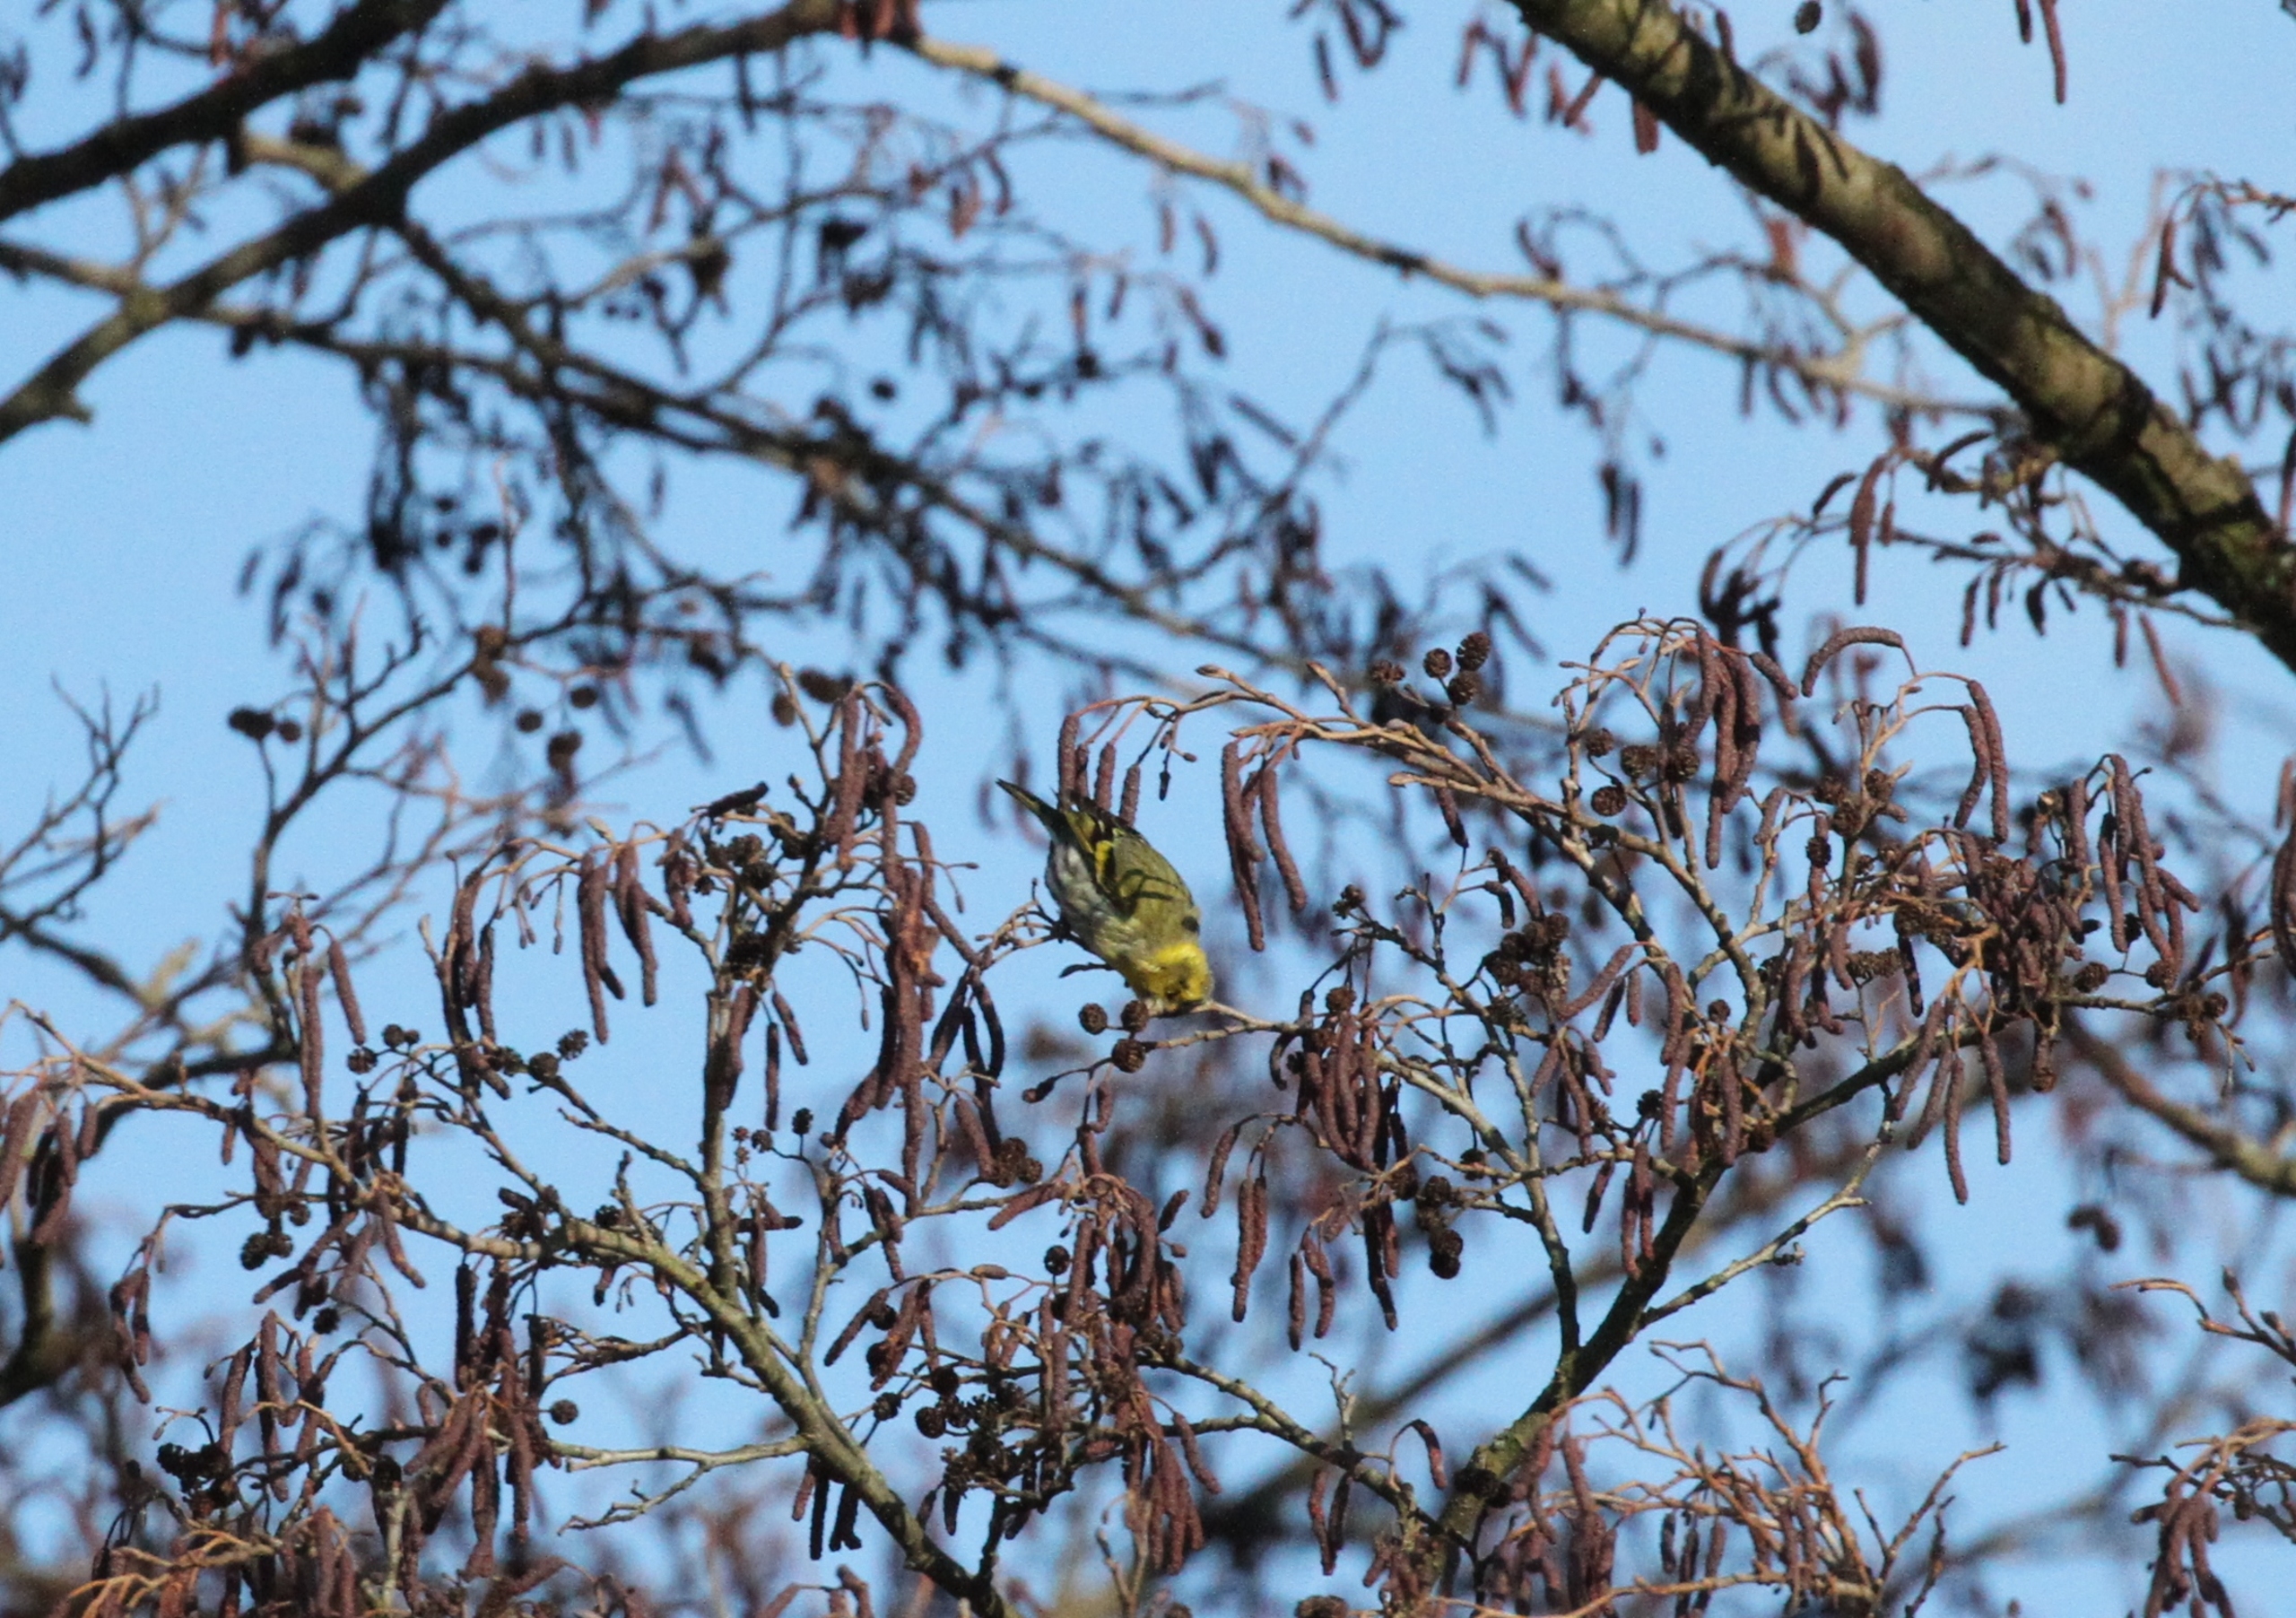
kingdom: Animalia
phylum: Chordata
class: Aves
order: Passeriformes
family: Fringillidae
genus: Spinus
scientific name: Spinus spinus
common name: Grønsisken
